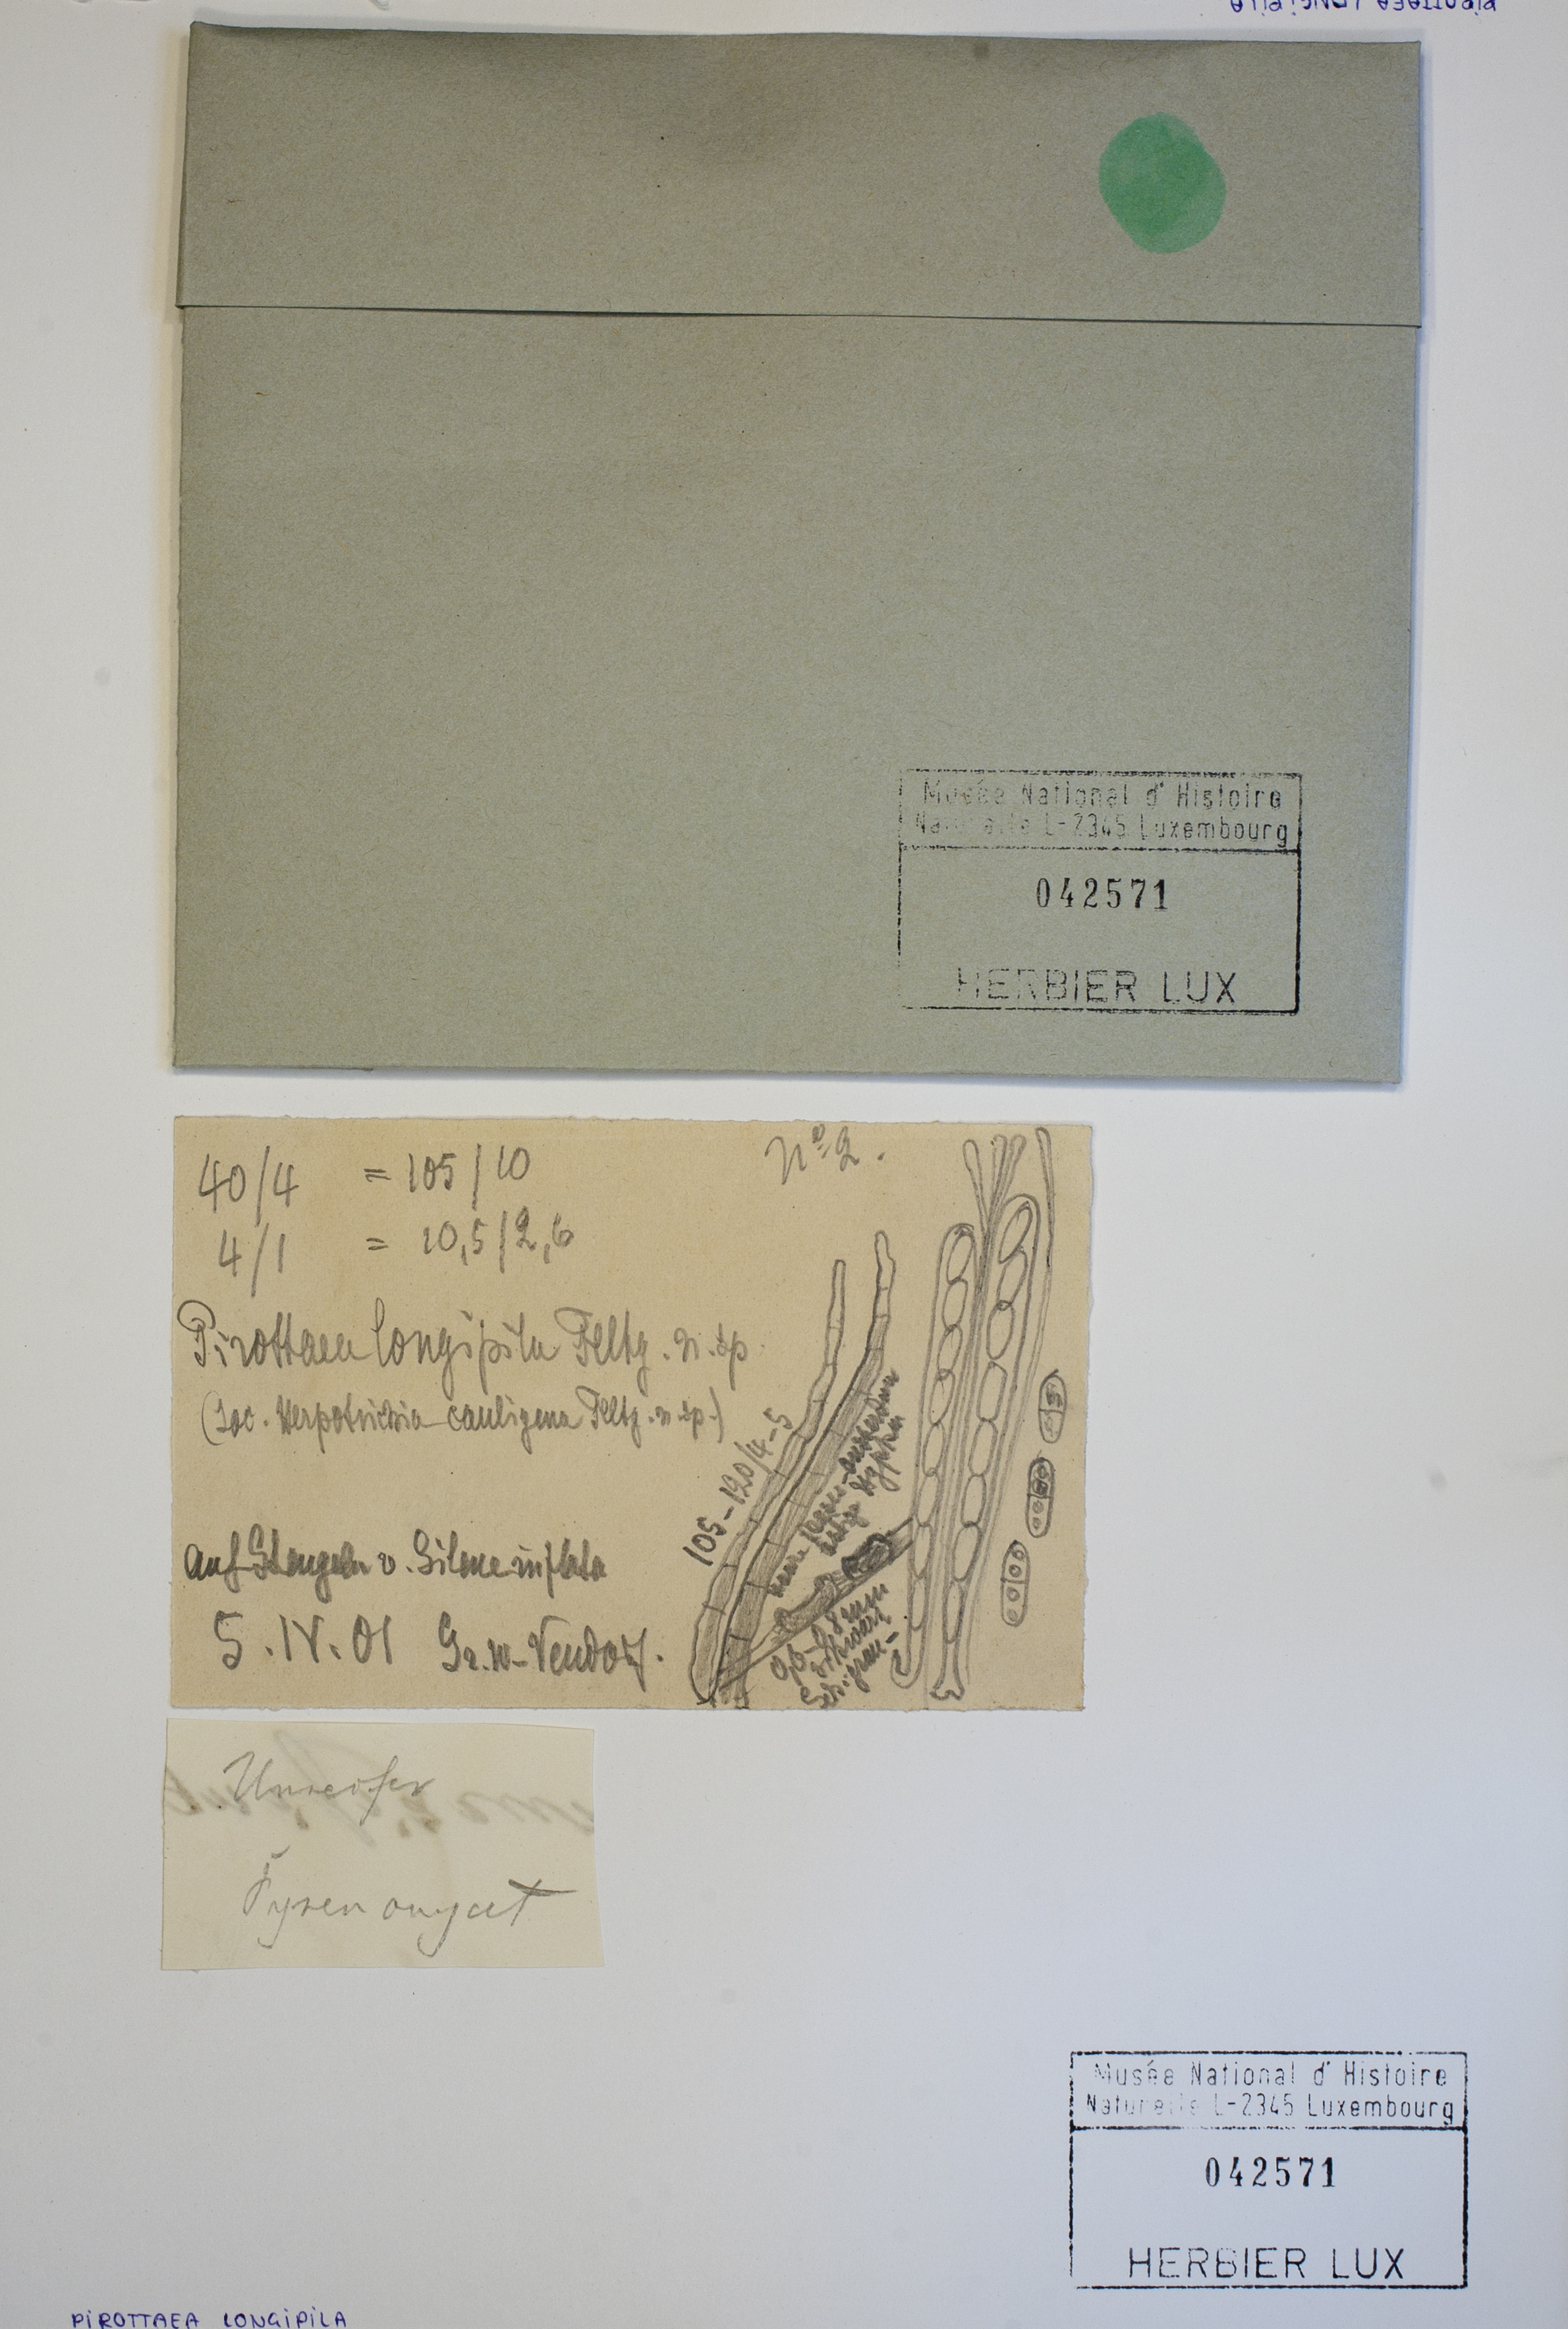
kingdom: Fungi
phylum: Ascomycota
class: Leotiomycetes
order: Helotiales
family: Ploettnerulaceae
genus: Pirottaea
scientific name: Pirottaea longipila
